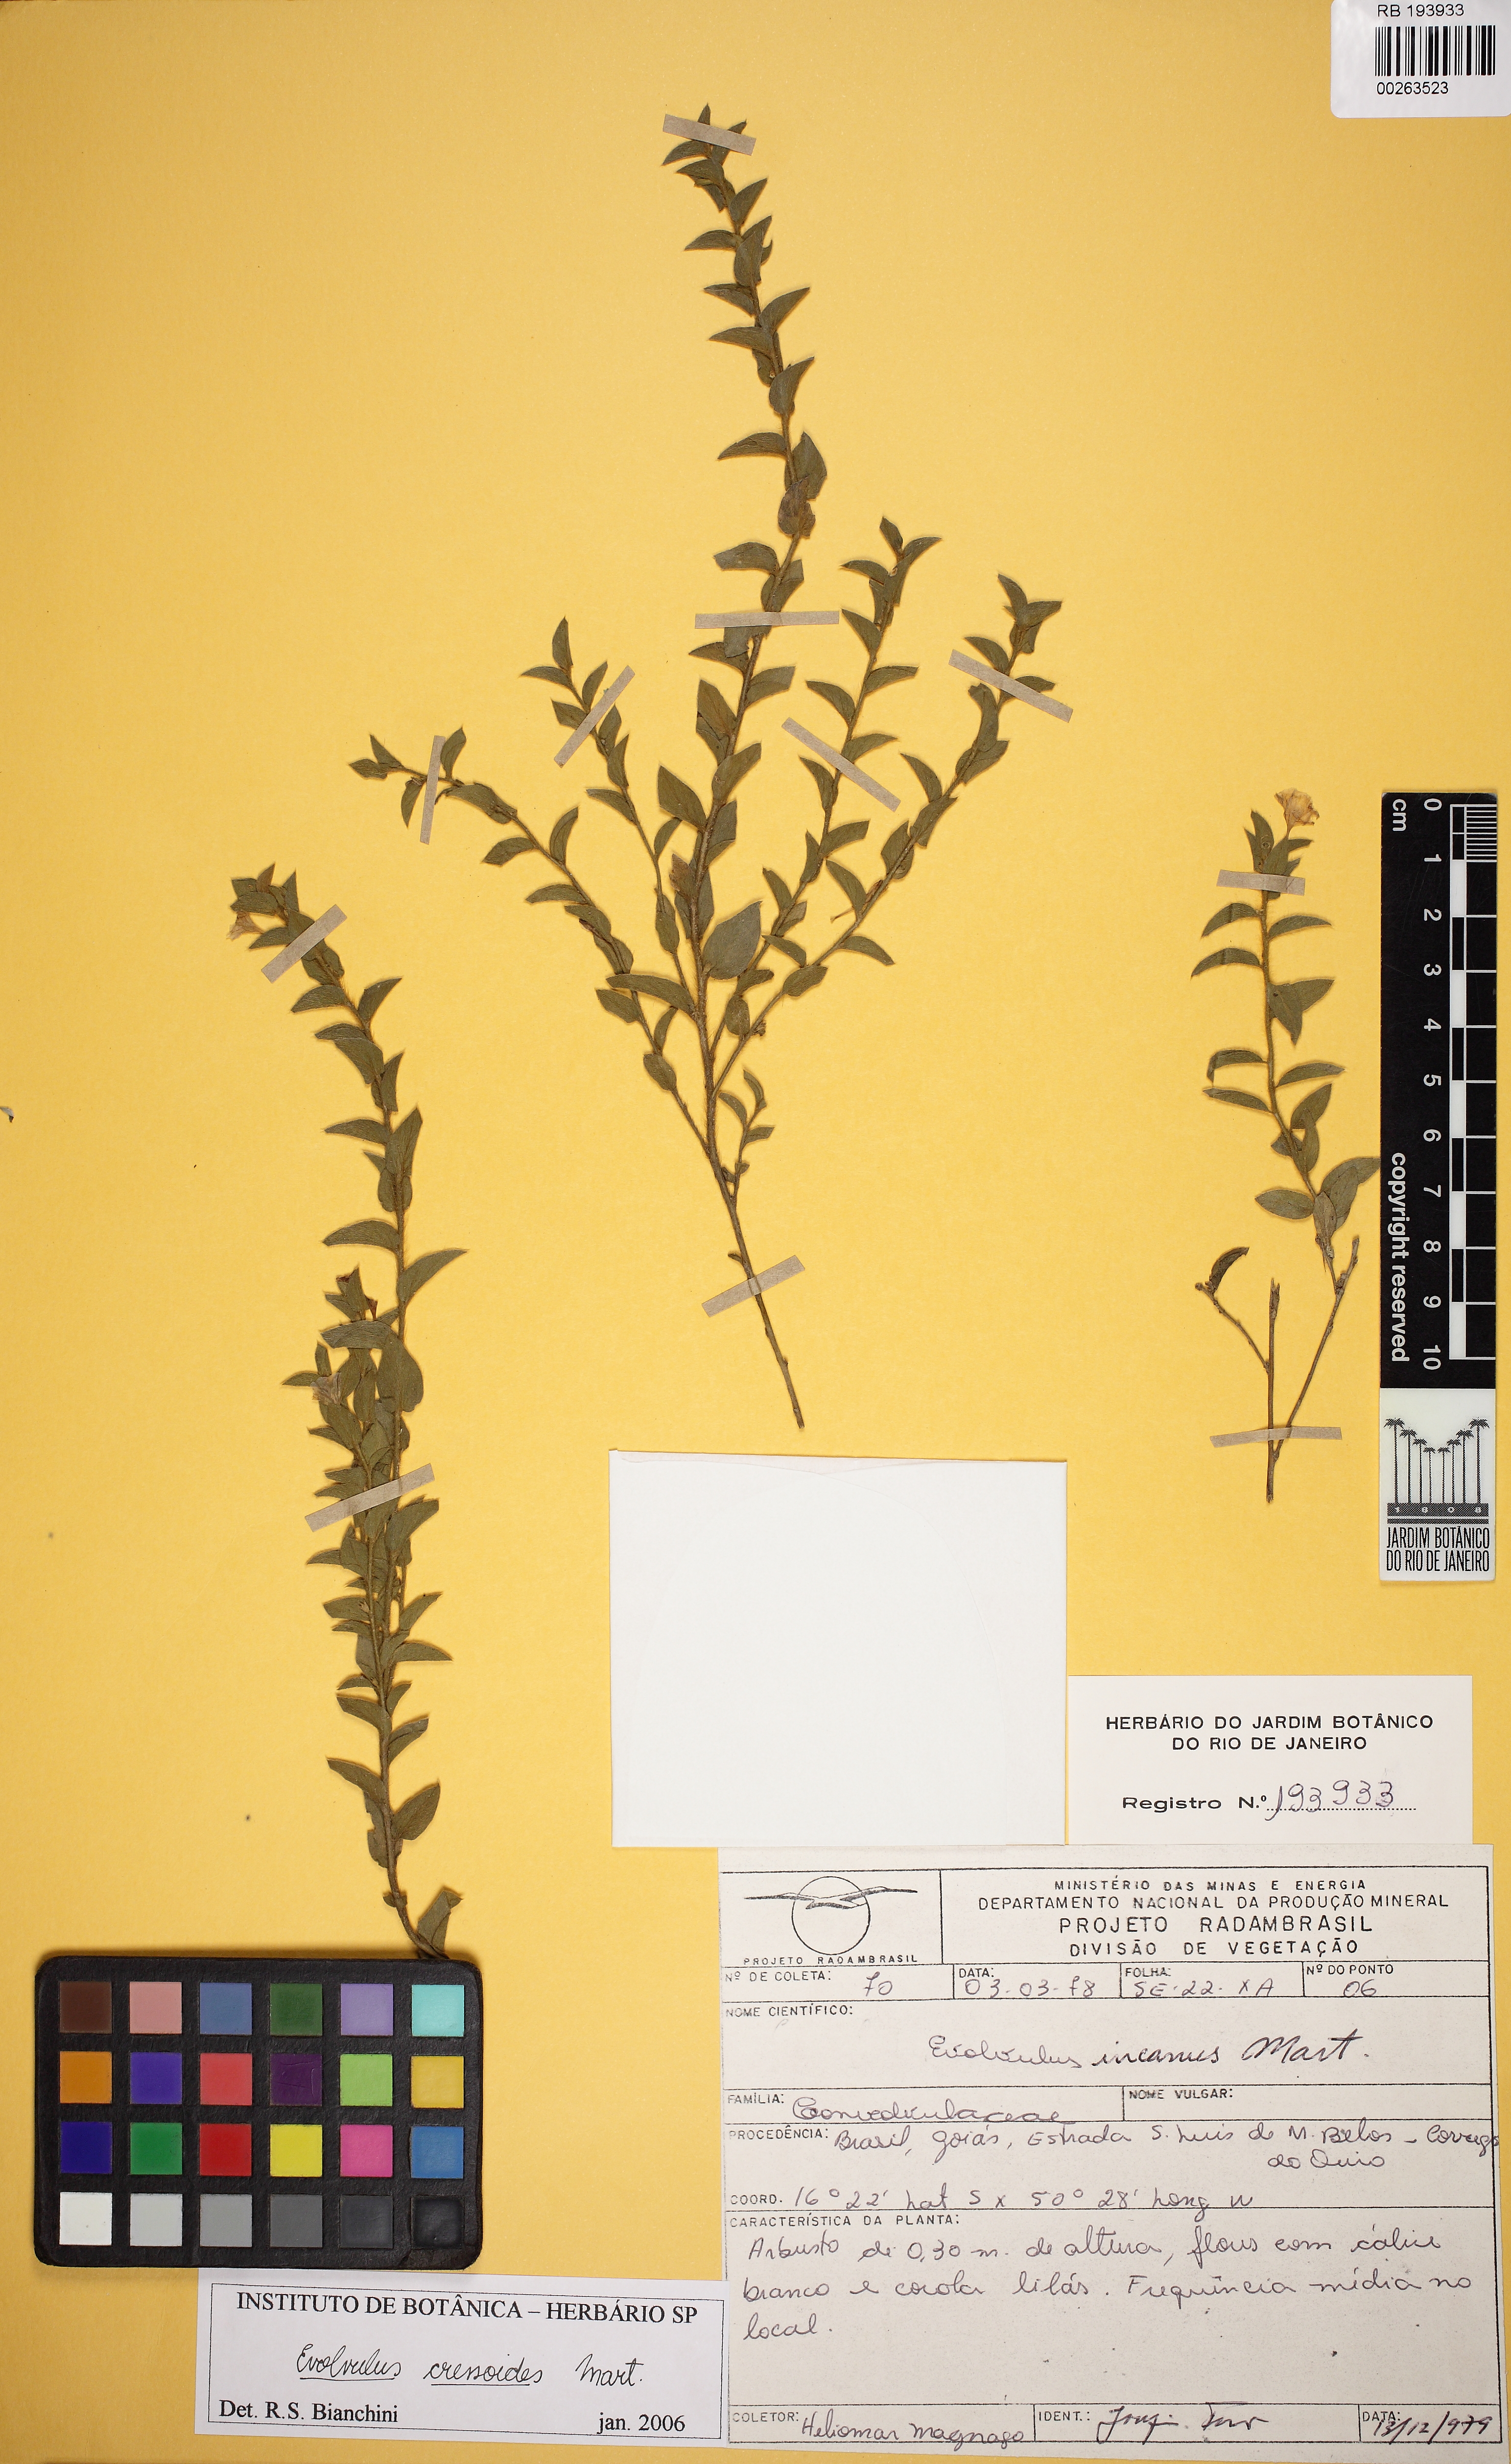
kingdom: Plantae
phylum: Tracheophyta
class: Magnoliopsida
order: Solanales
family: Convolvulaceae
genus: Evolvulus
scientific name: Evolvulus cressoides
